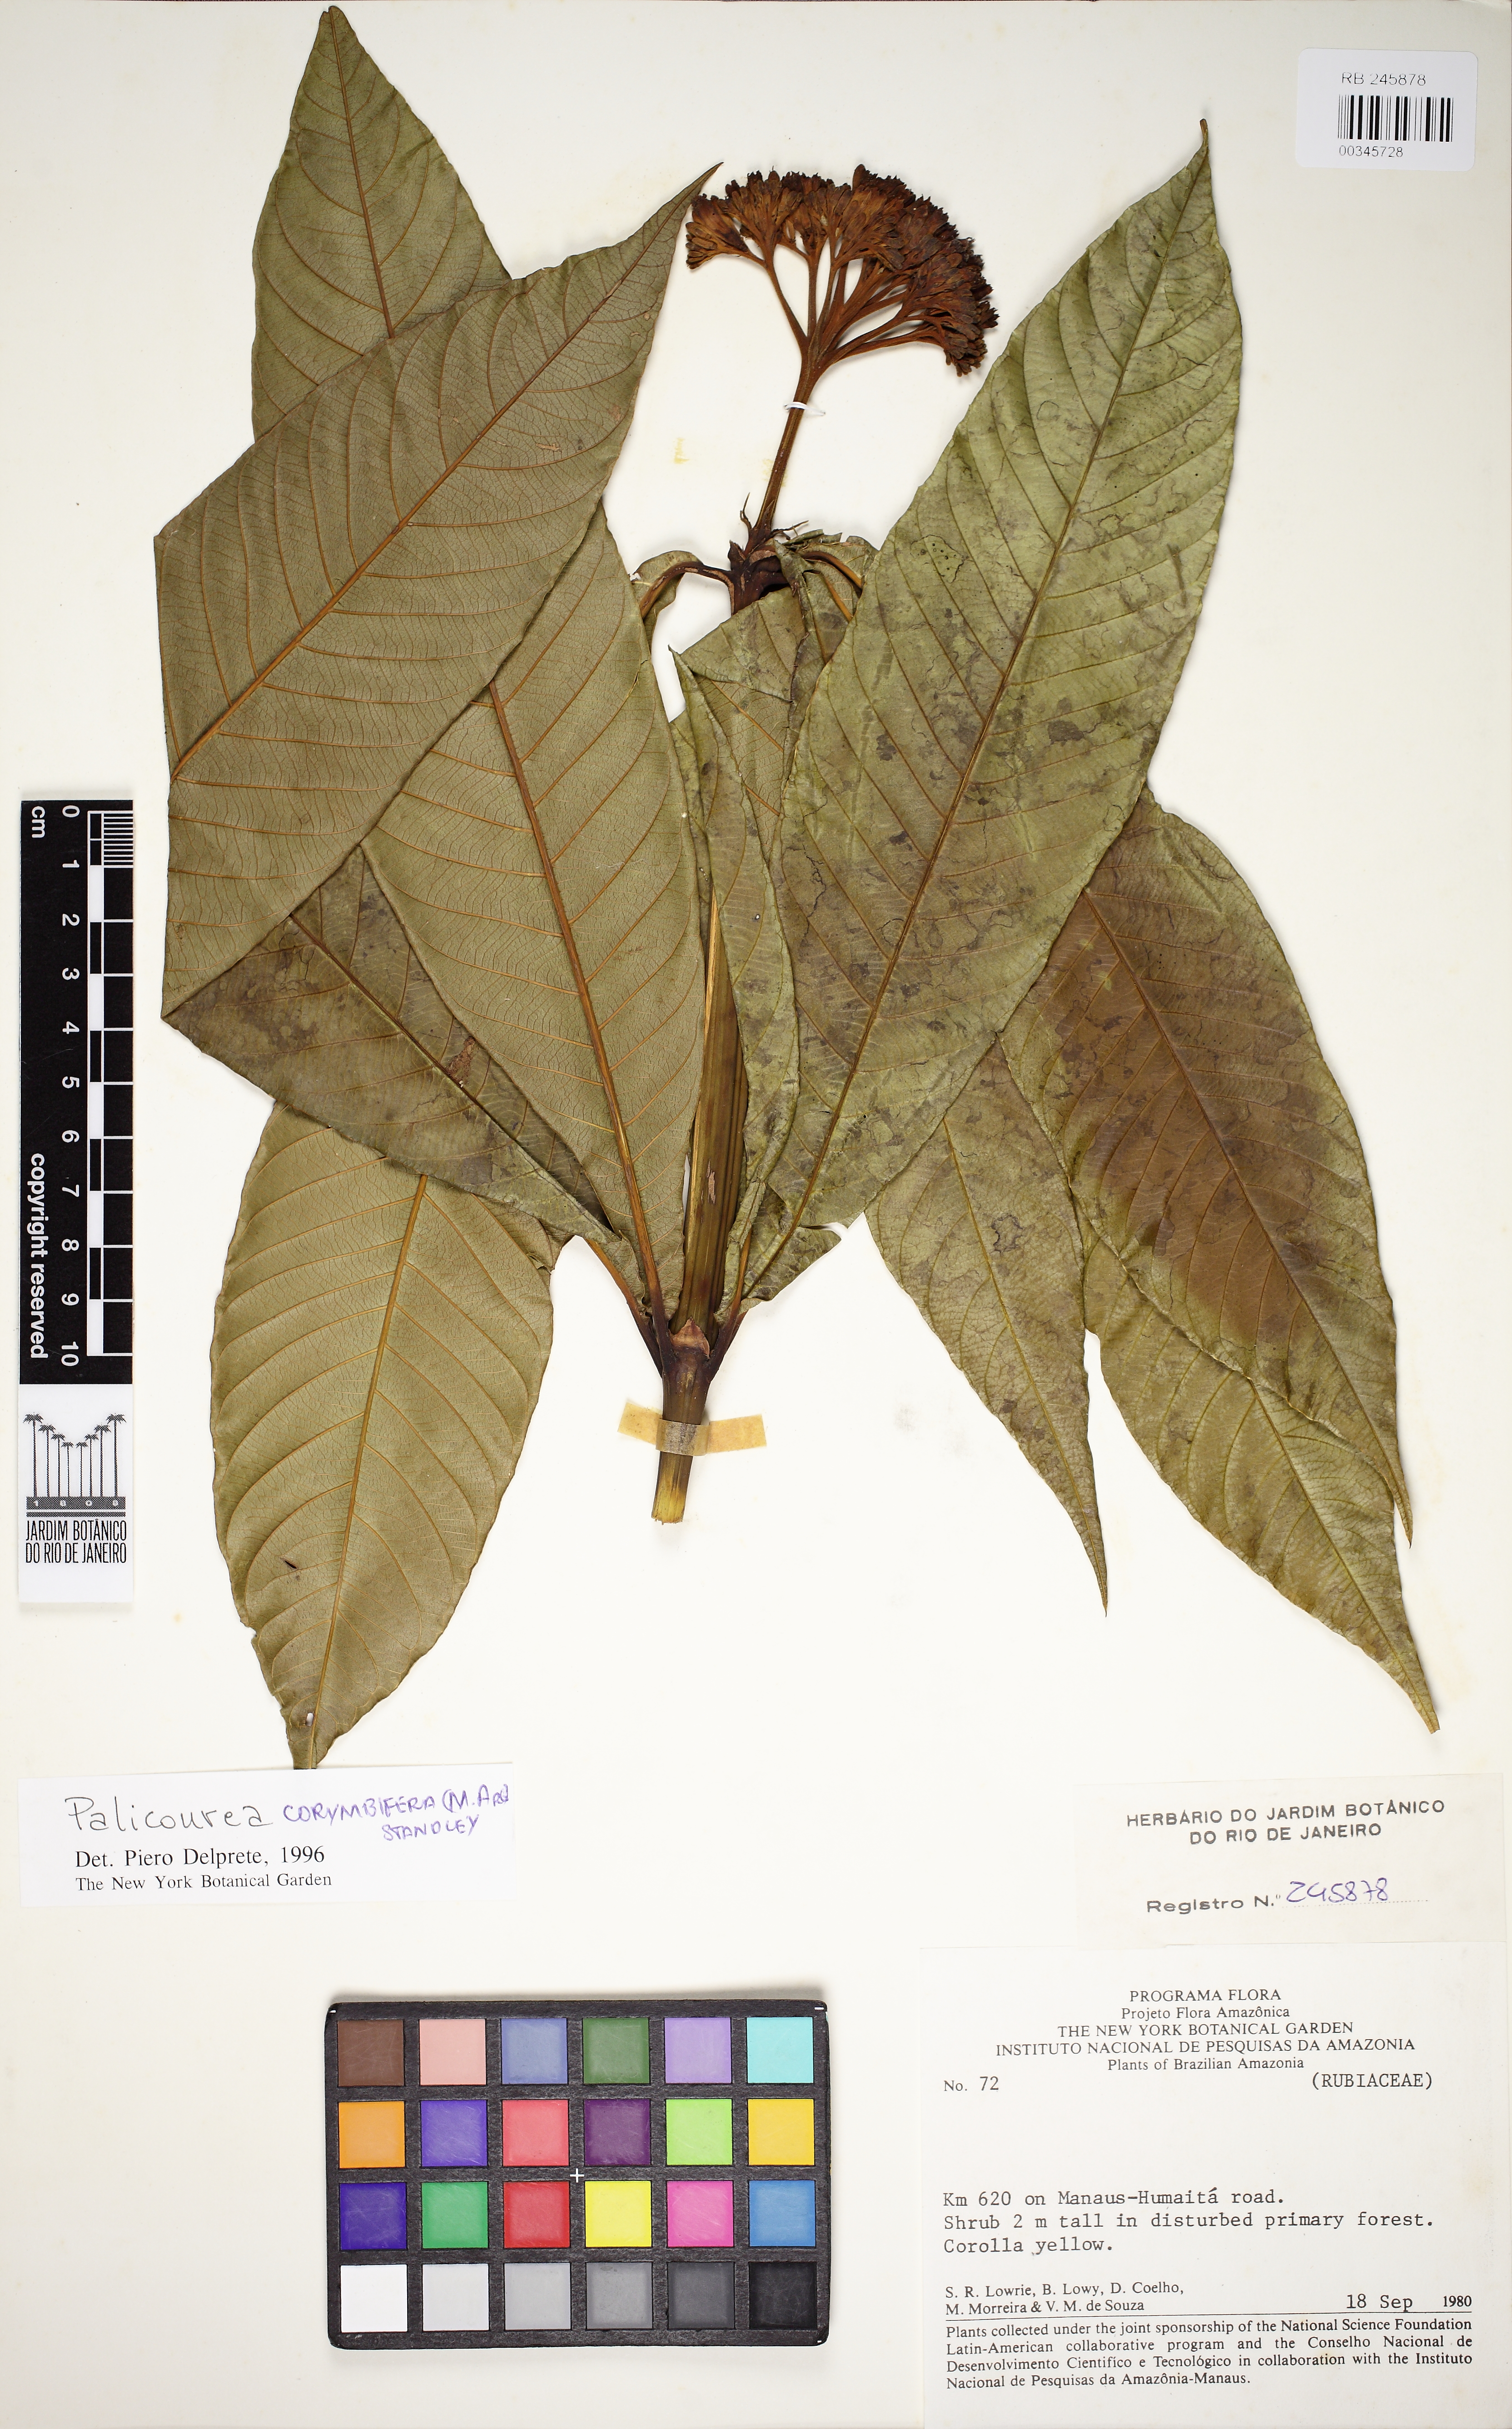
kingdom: Plantae
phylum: Tracheophyta
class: Magnoliopsida
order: Gentianales
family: Rubiaceae
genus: Palicourea
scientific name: Palicourea corymbifera
